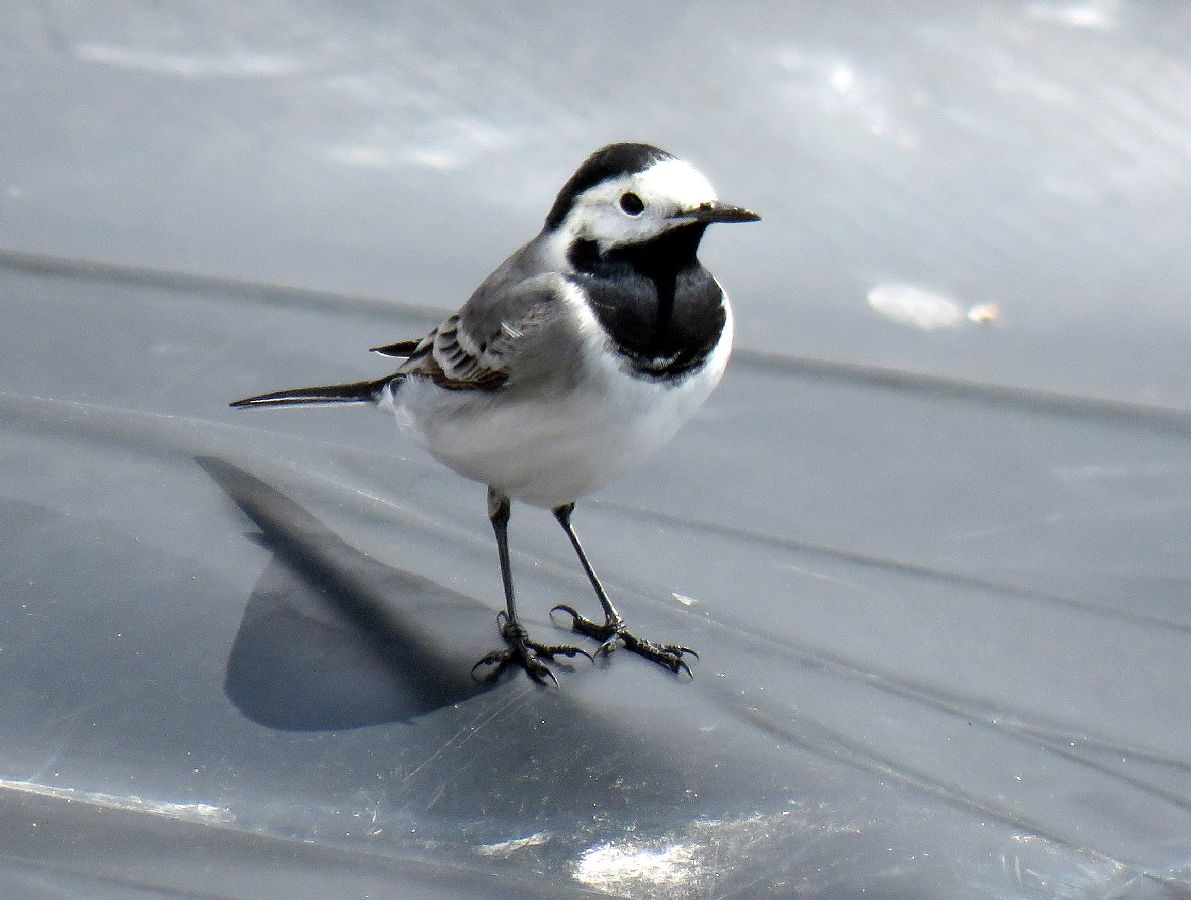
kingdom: Animalia
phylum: Chordata
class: Aves
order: Passeriformes
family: Motacillidae
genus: Motacilla
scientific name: Motacilla alba
